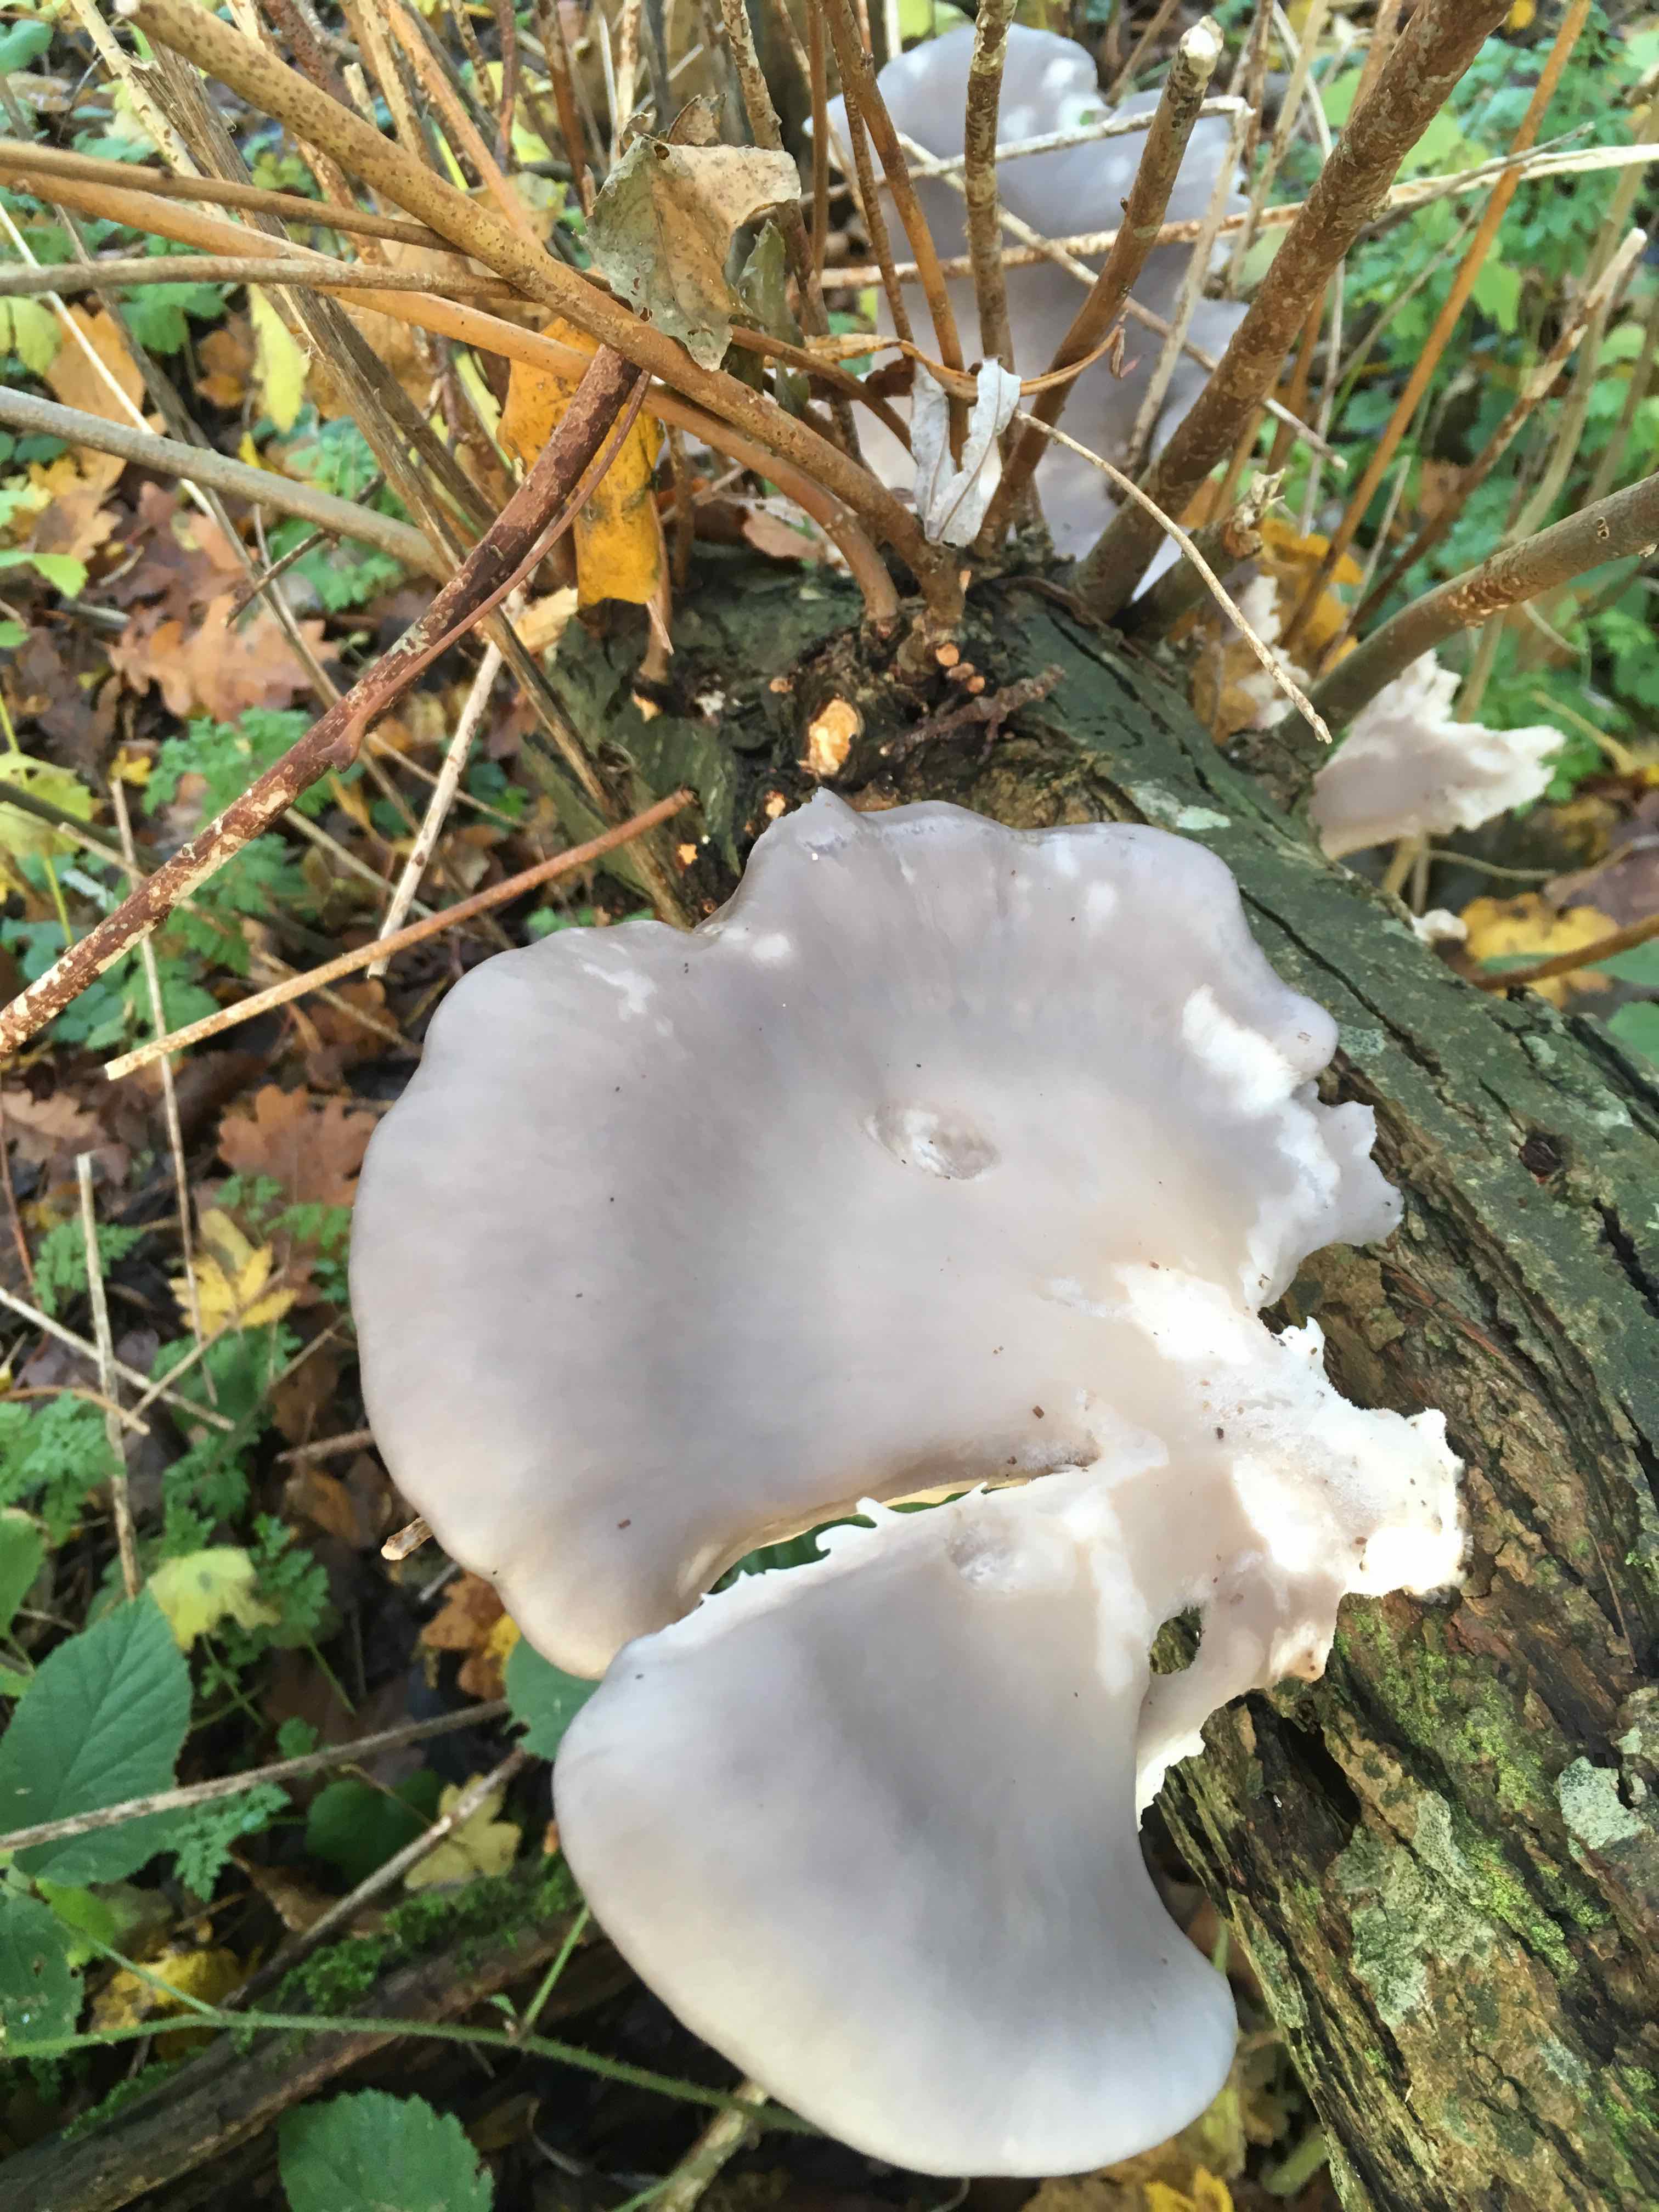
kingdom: Fungi
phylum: Basidiomycota
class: Agaricomycetes
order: Agaricales
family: Pleurotaceae
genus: Pleurotus
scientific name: Pleurotus ostreatus
